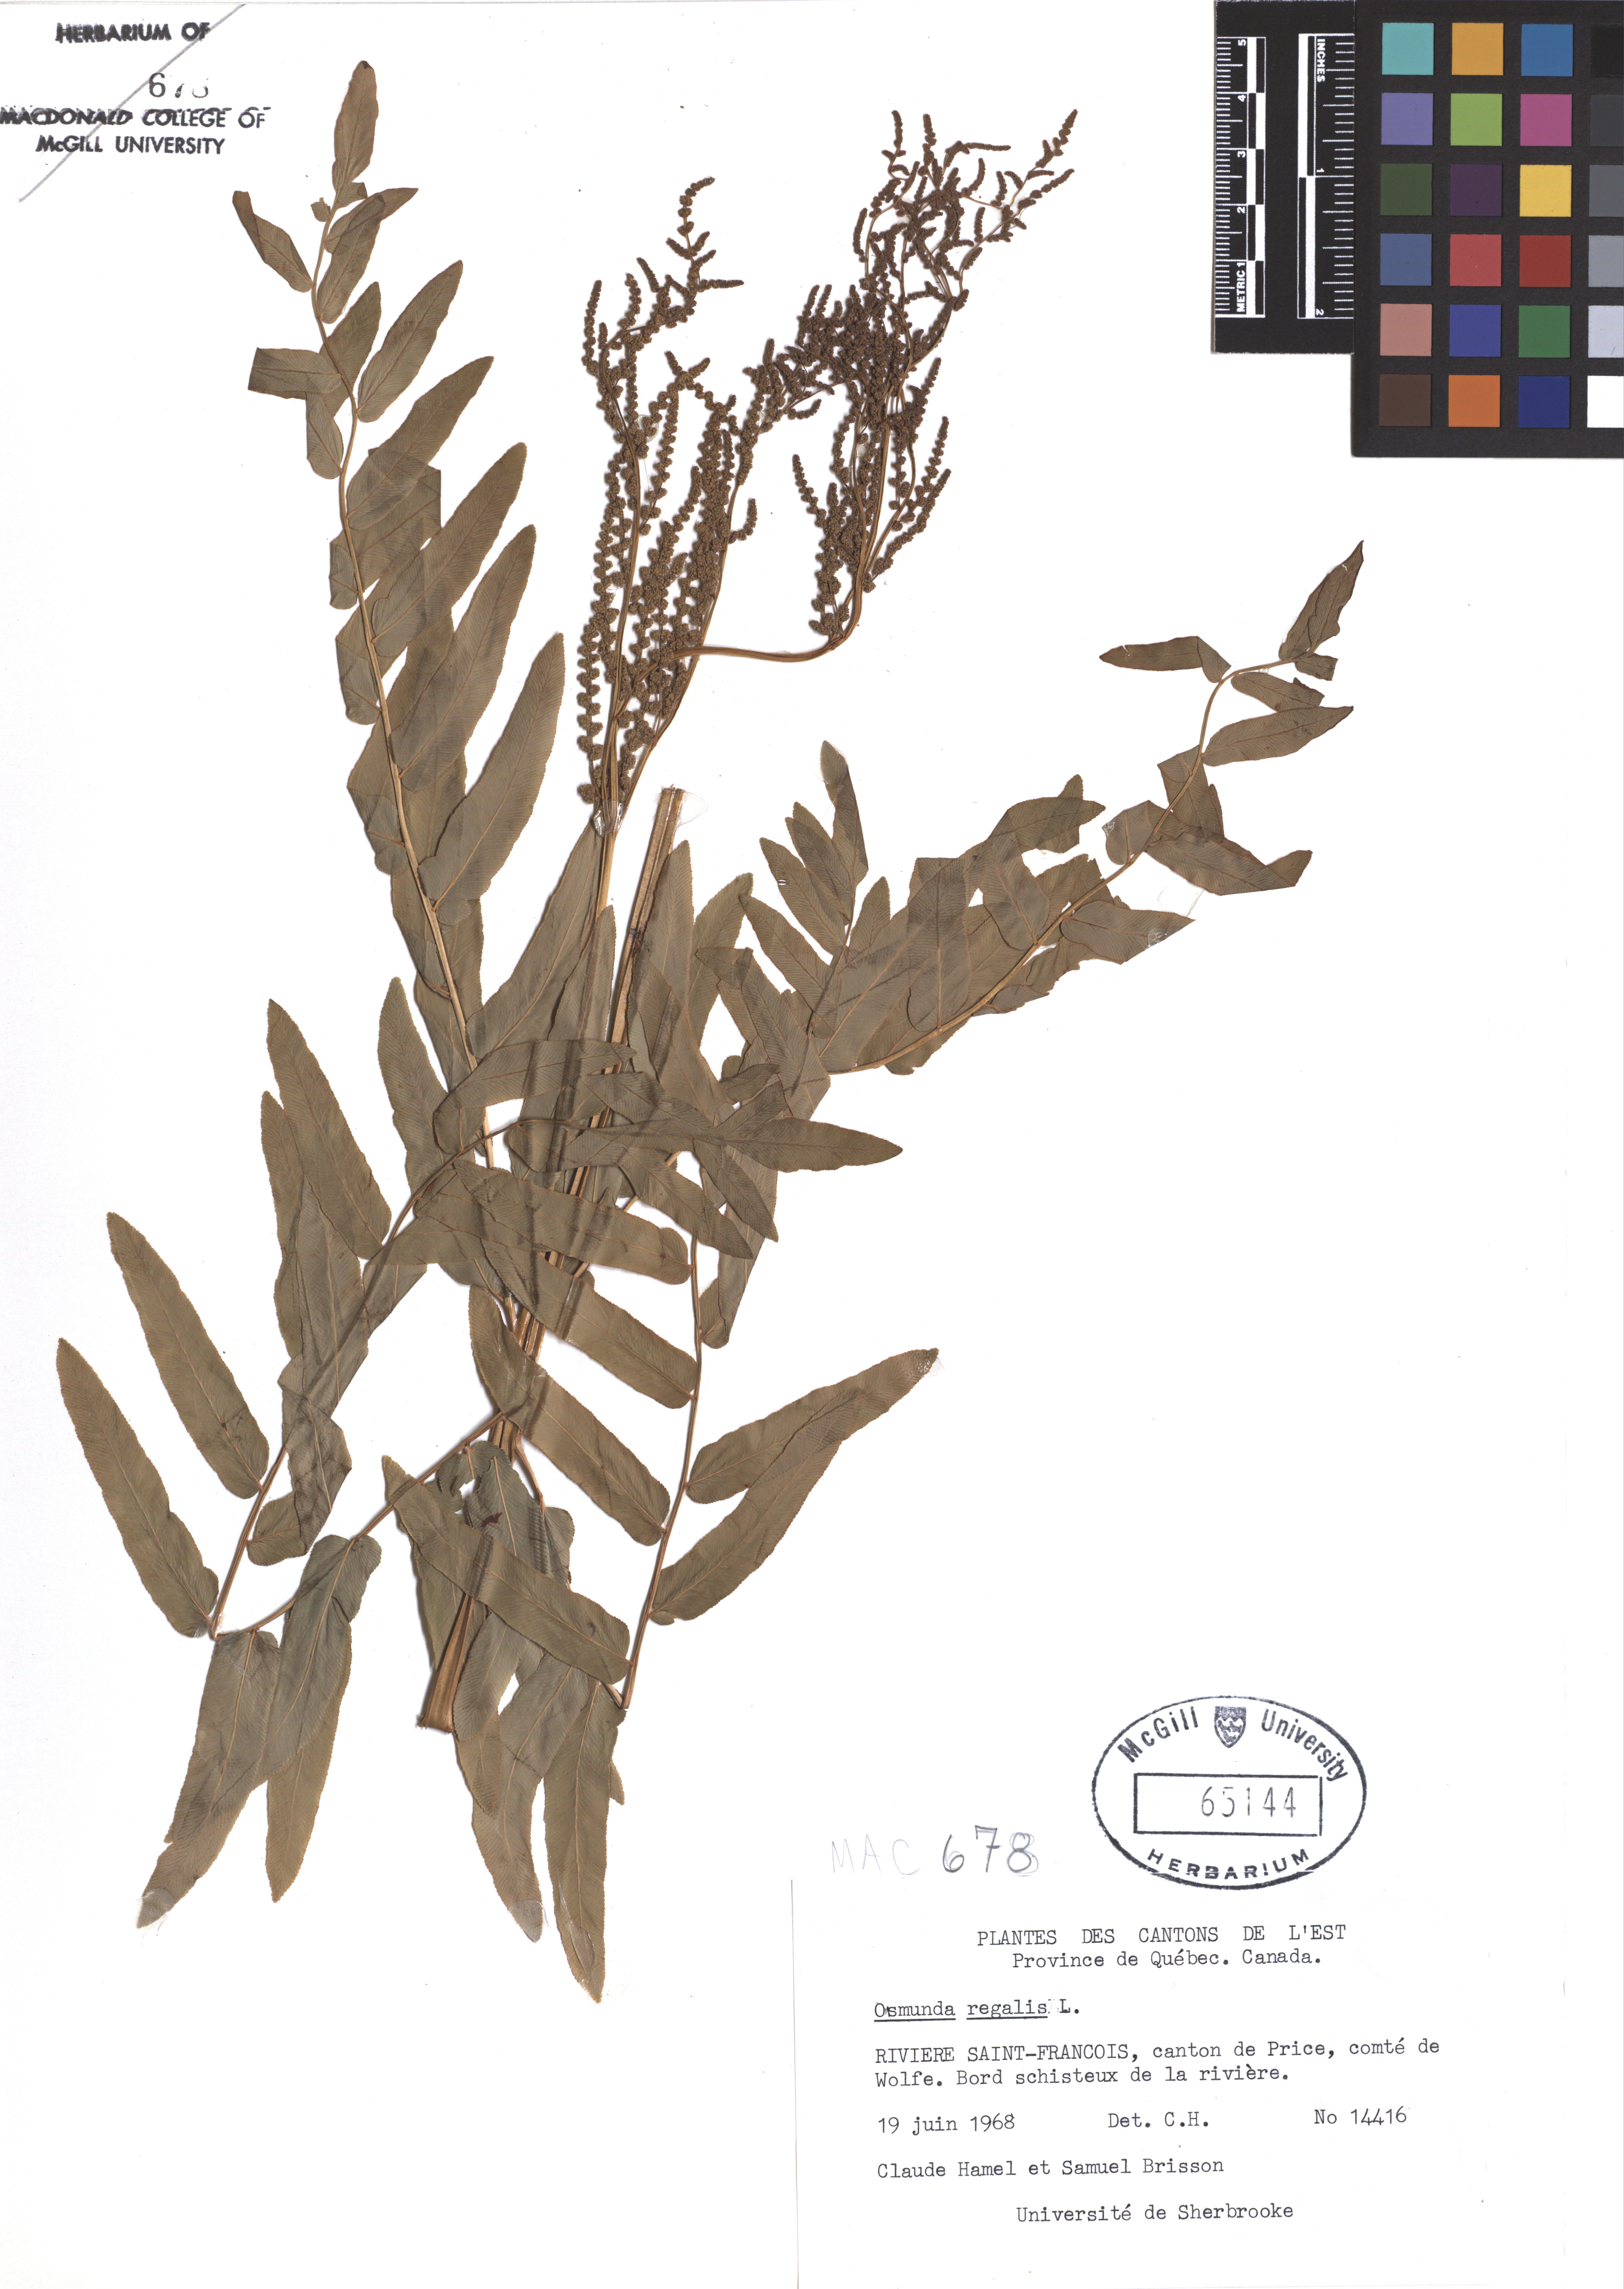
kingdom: Plantae
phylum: Tracheophyta
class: Polypodiopsida
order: Osmundales
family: Osmundaceae
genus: Osmunda
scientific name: Osmunda regalis
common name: Royal fern
